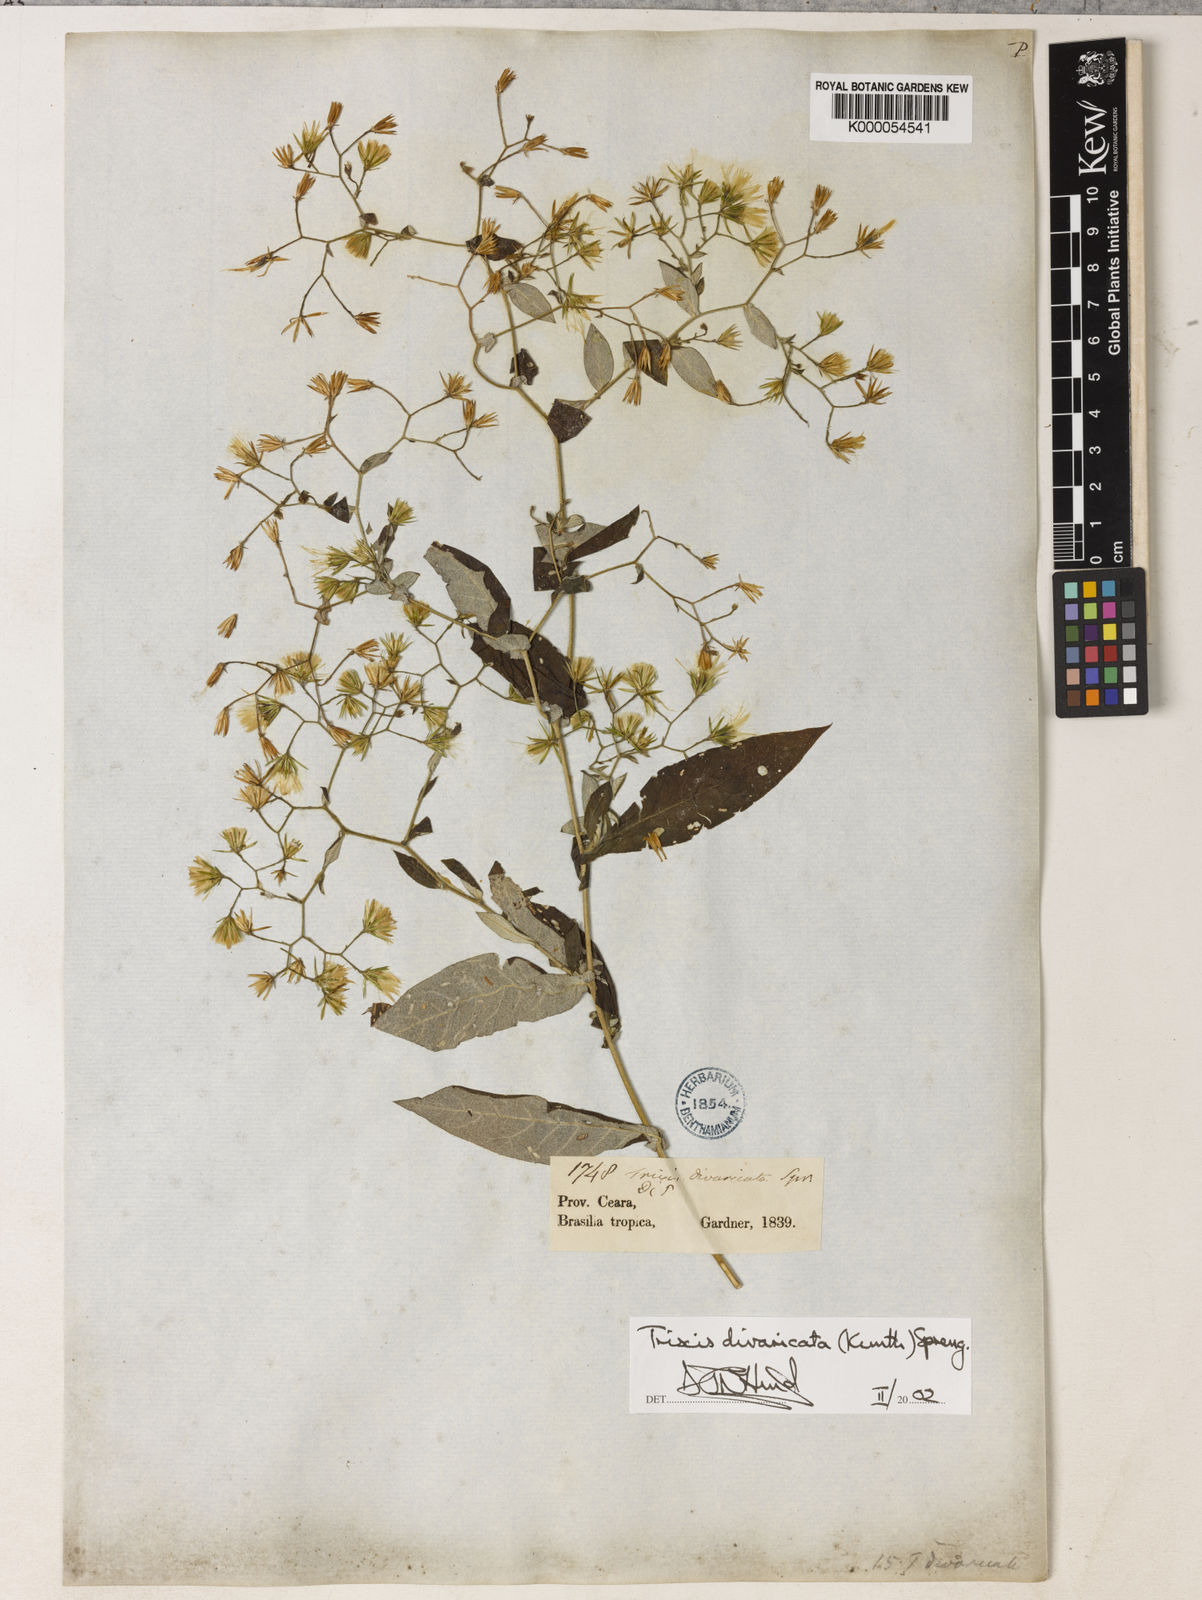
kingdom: Plantae
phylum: Tracheophyta
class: Magnoliopsida
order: Asterales
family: Asteraceae
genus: Trixis
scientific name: Trixis divaricata
